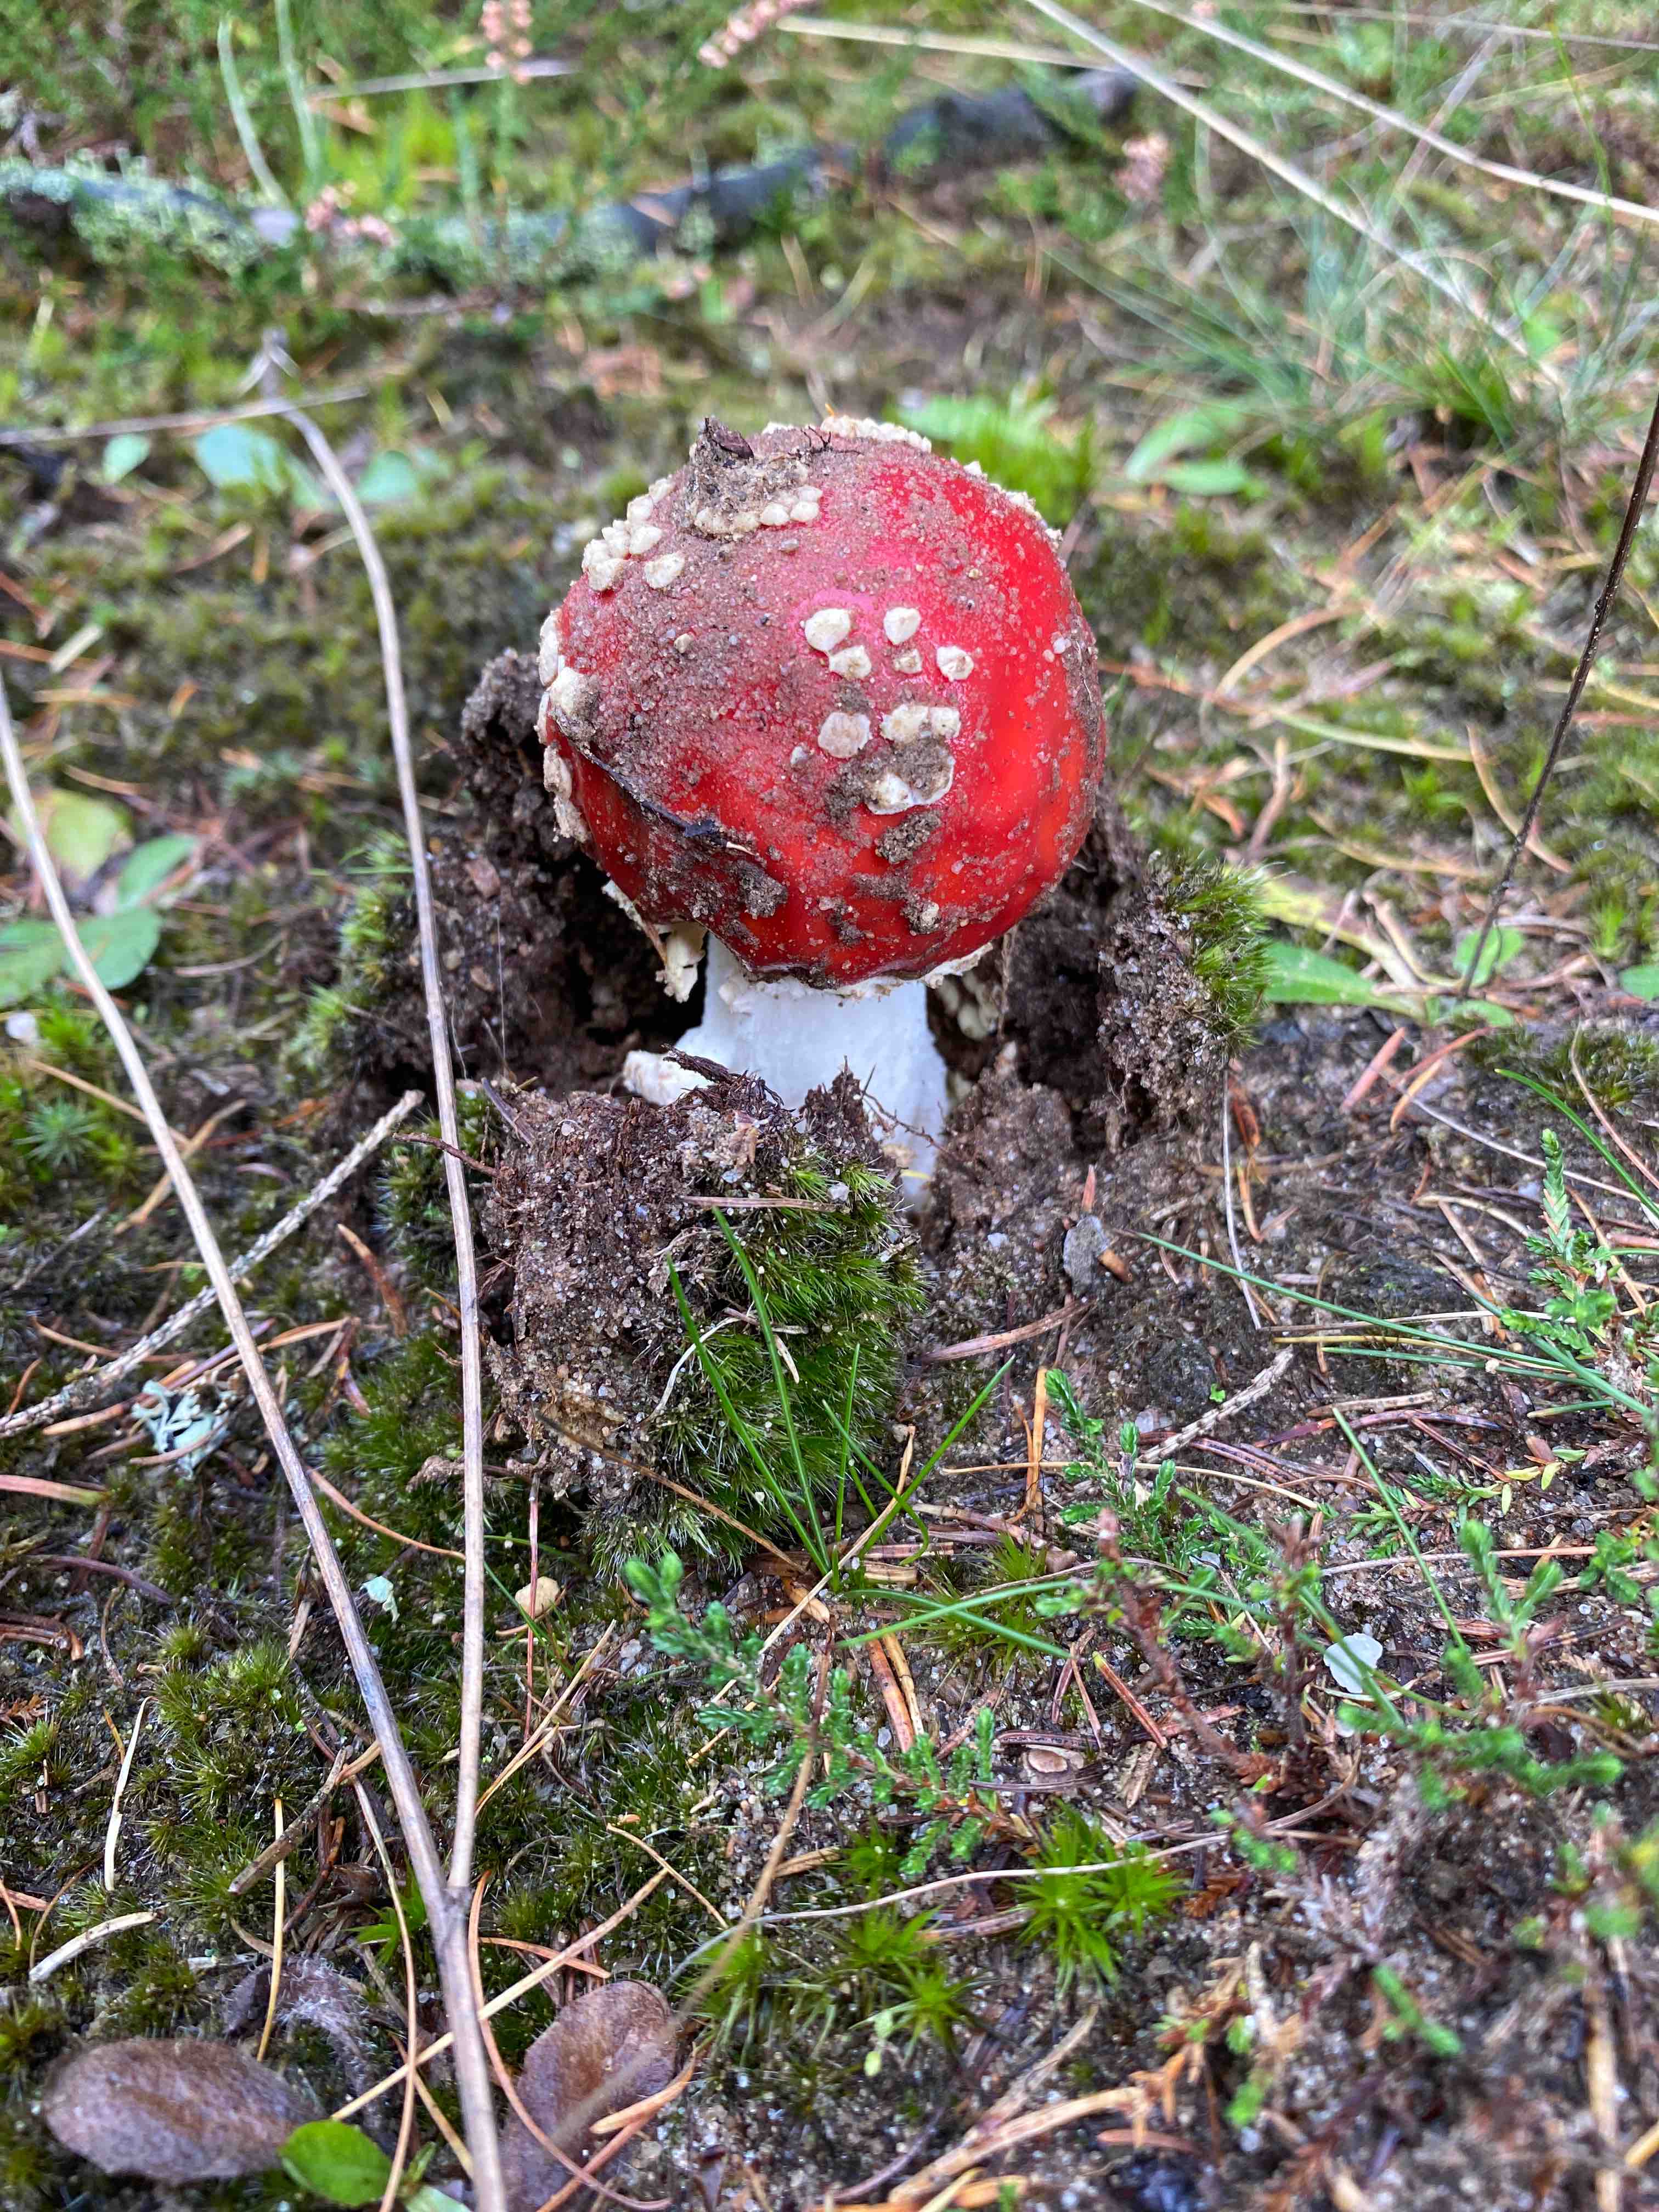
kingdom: Fungi
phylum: Basidiomycota
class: Agaricomycetes
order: Agaricales
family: Amanitaceae
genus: Amanita
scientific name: Amanita muscaria
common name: rød fluesvamp
